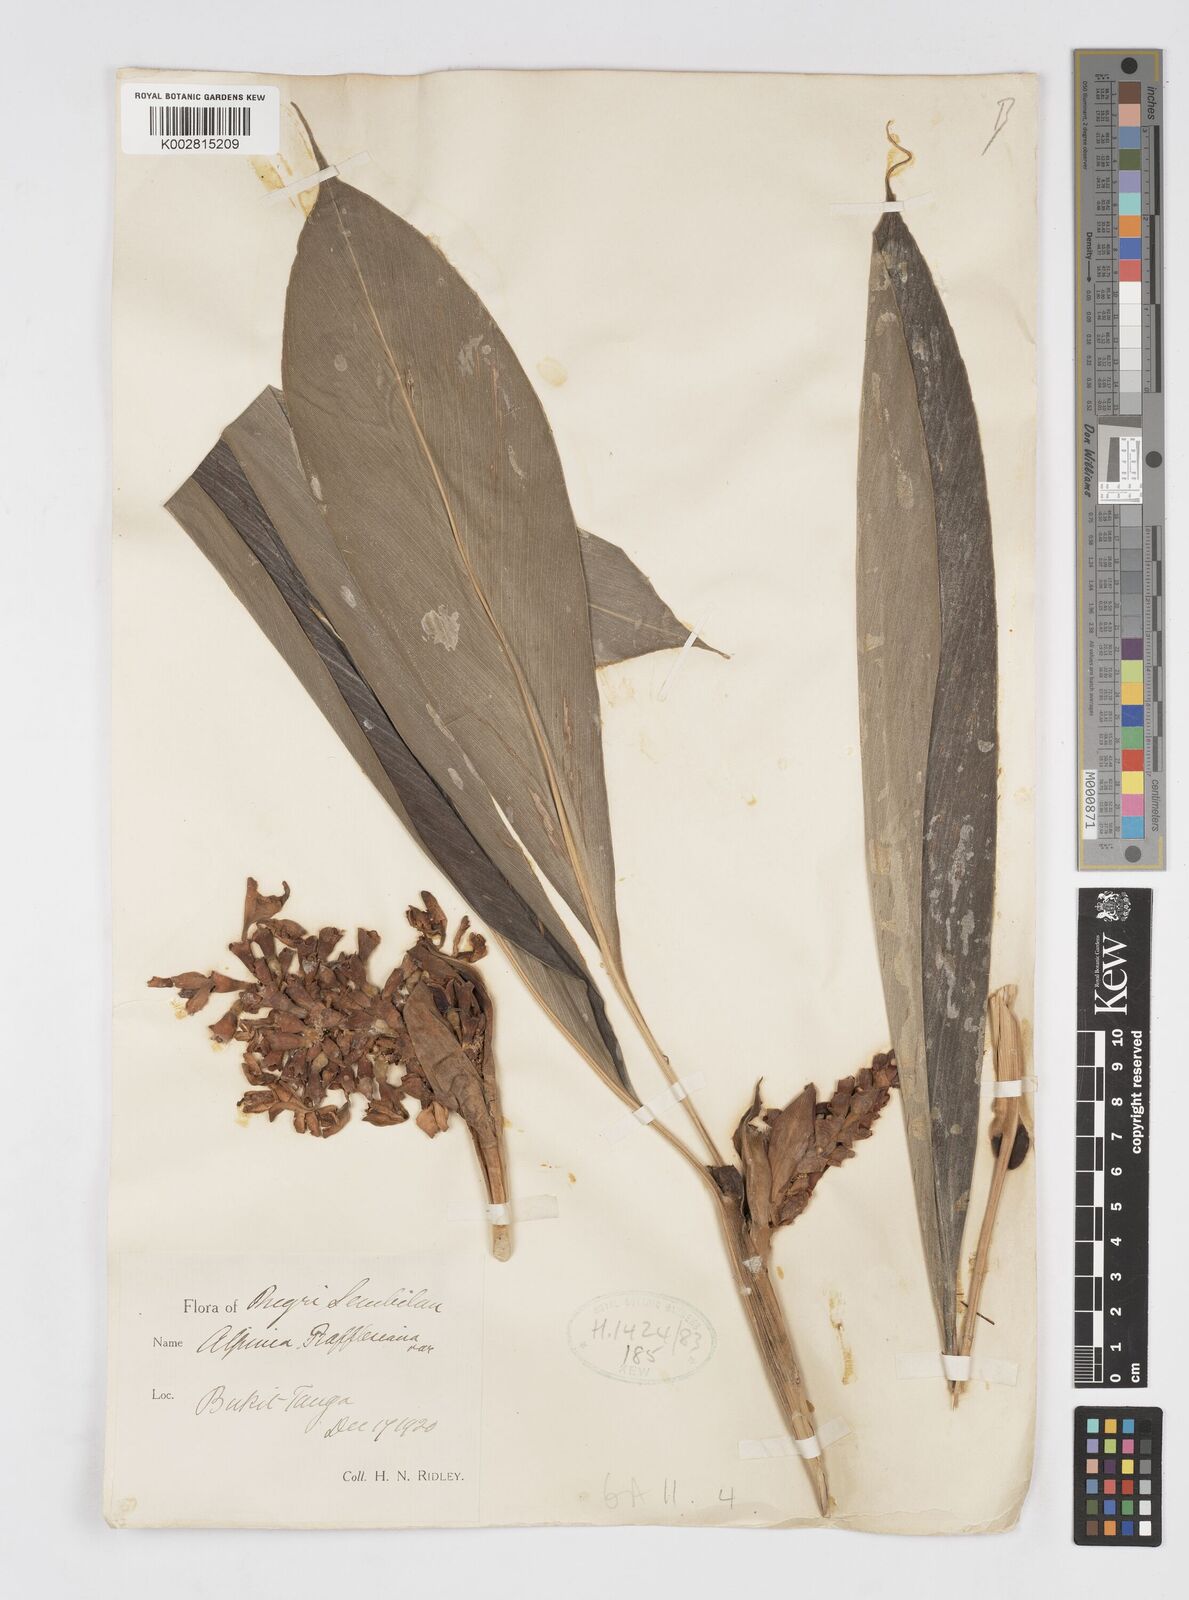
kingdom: Plantae
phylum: Tracheophyta
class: Liliopsida
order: Zingiberales
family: Zingiberaceae
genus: Alpinia
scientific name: Alpinia rafflesiana
